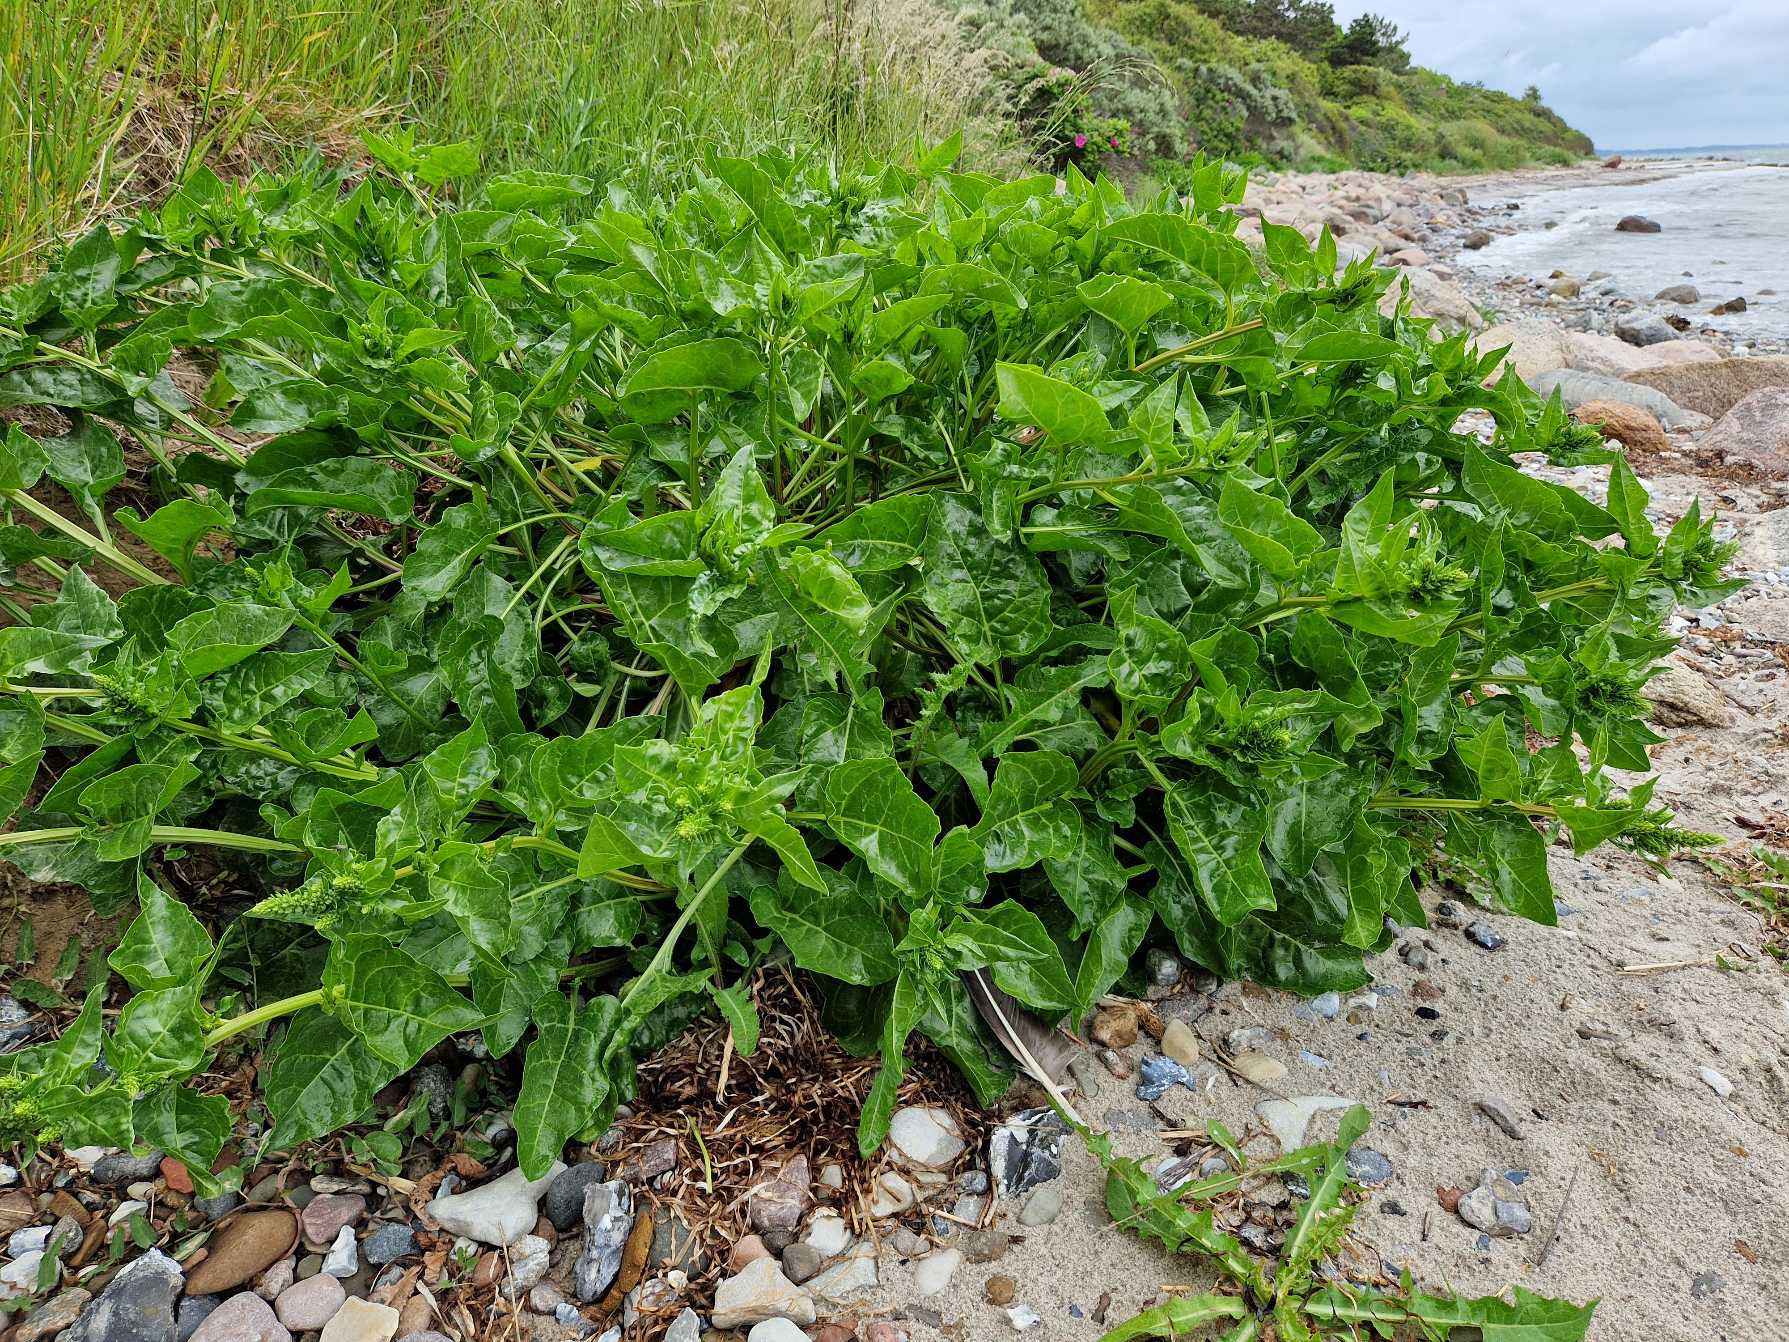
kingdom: Plantae
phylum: Tracheophyta
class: Magnoliopsida
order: Caryophyllales
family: Amaranthaceae
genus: Beta
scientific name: Beta maritima
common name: Strand-bede
